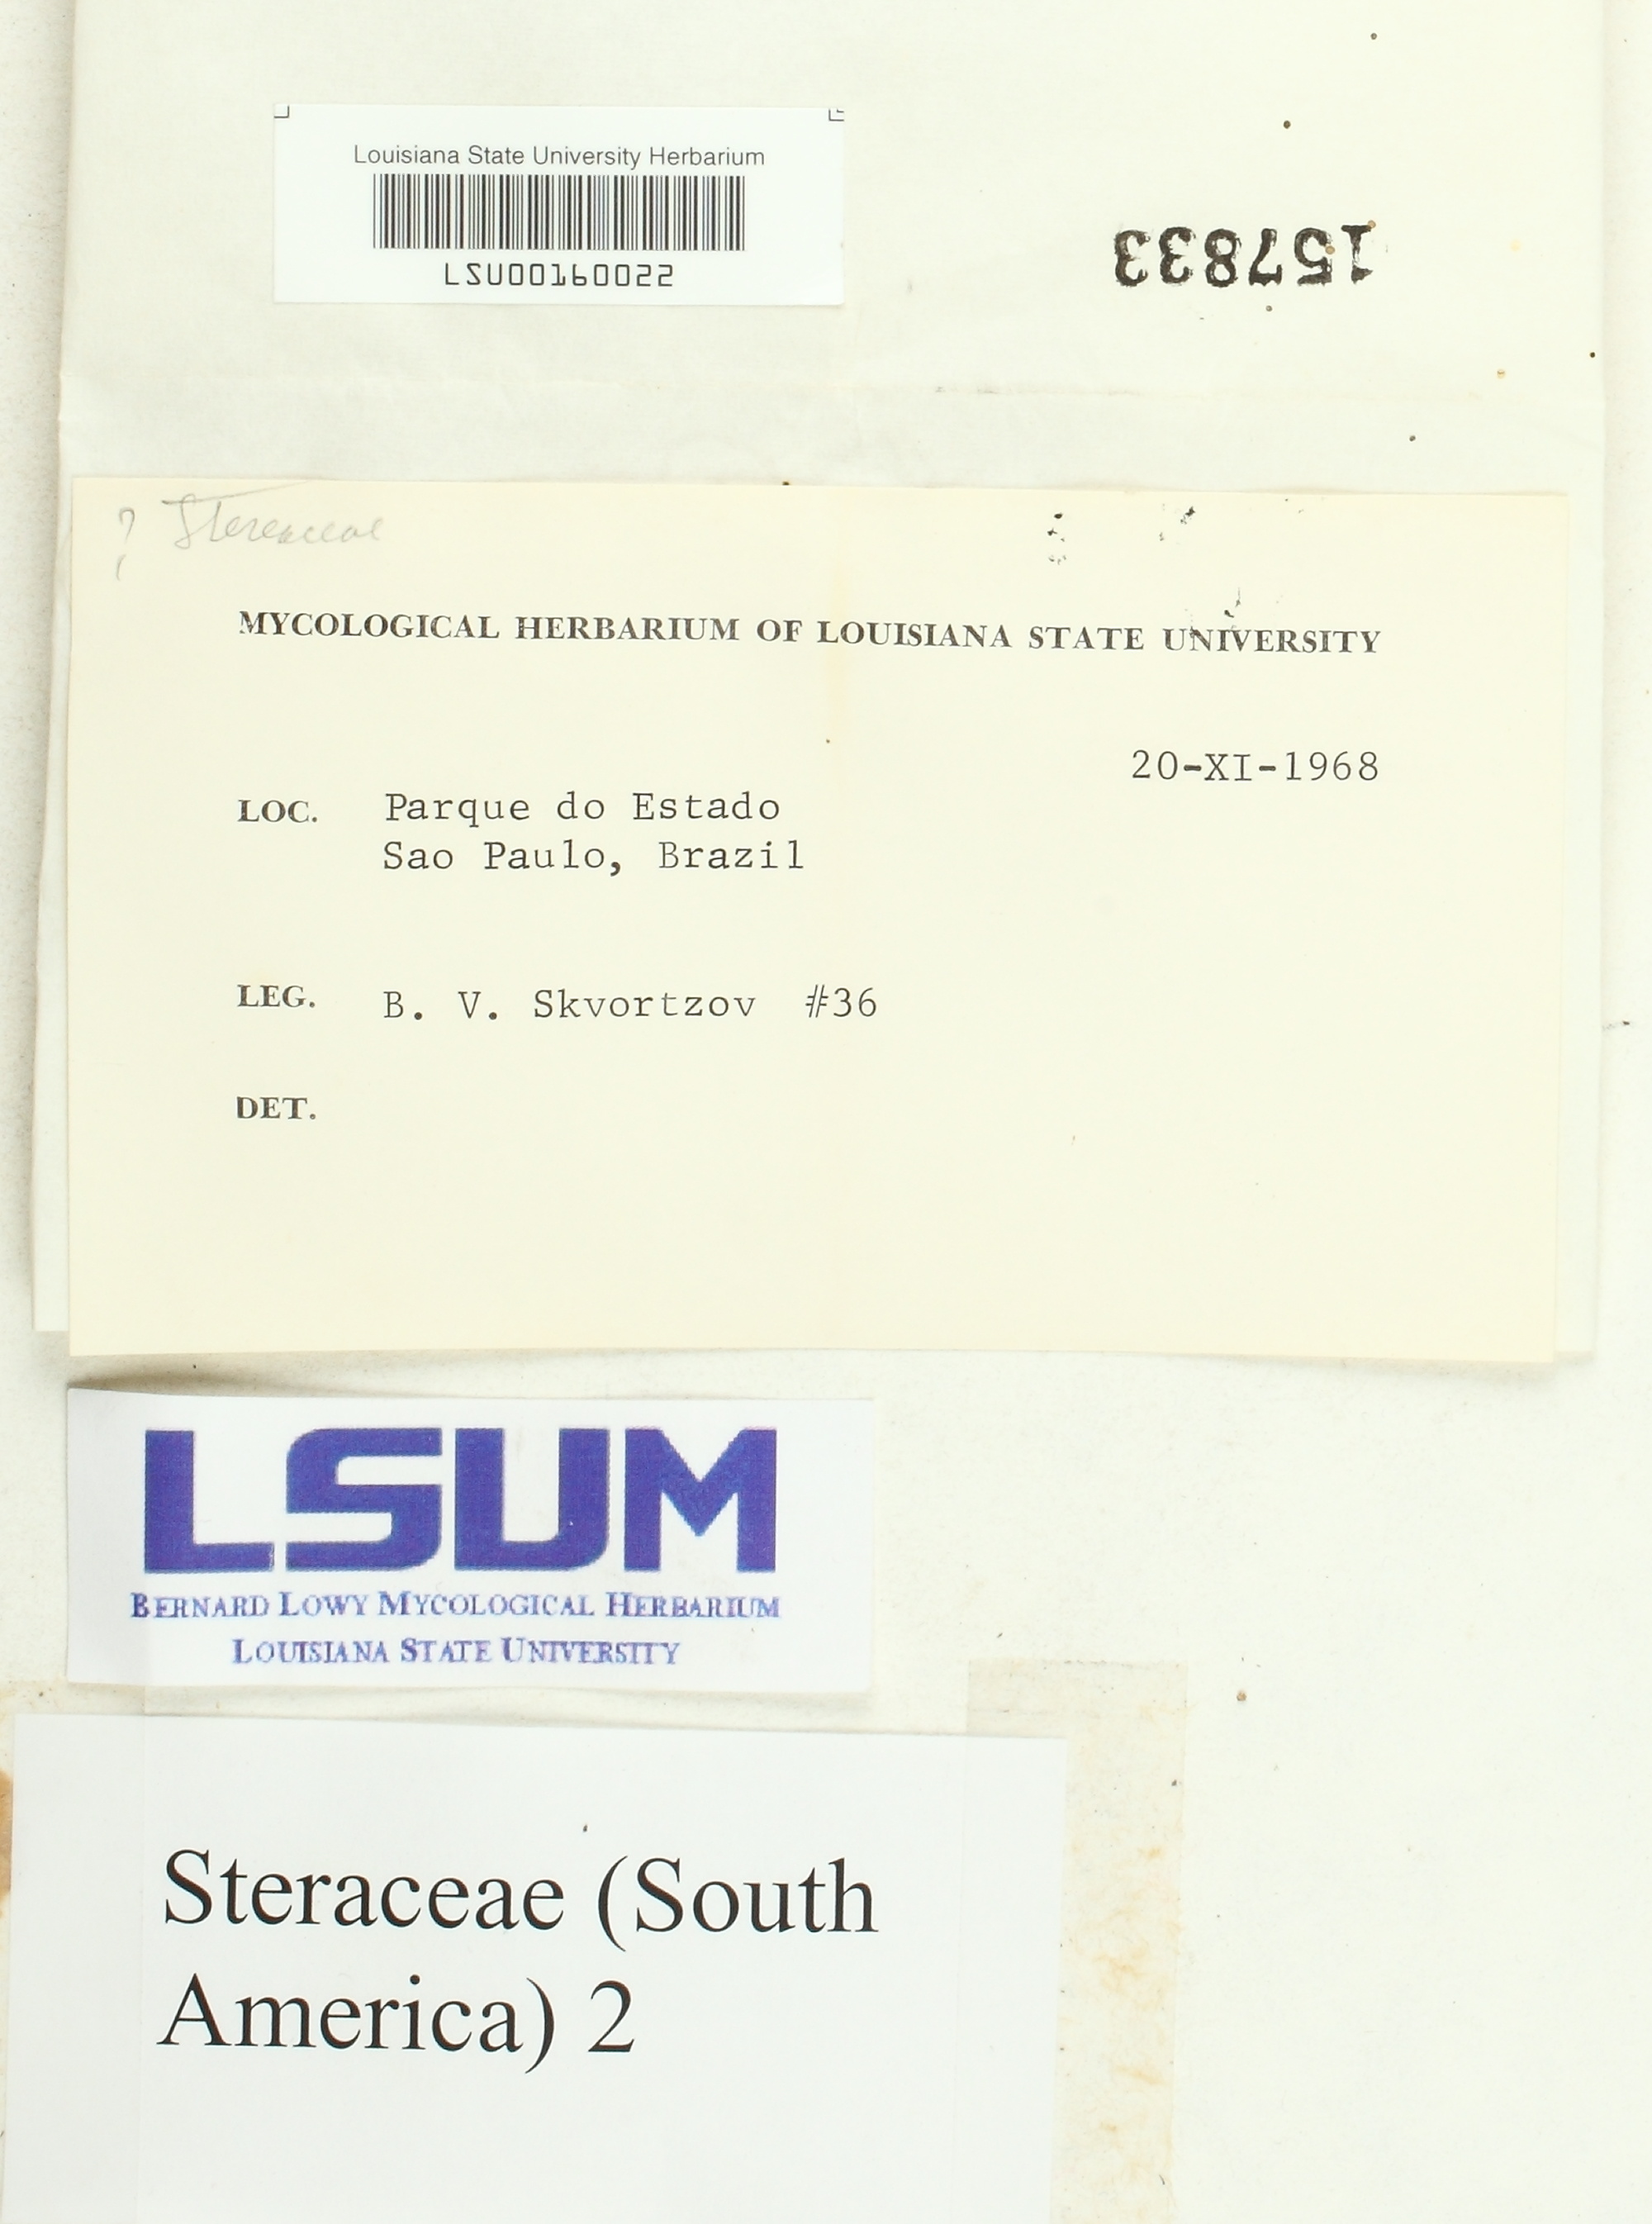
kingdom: Fungi
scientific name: Fungi
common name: Fungi
